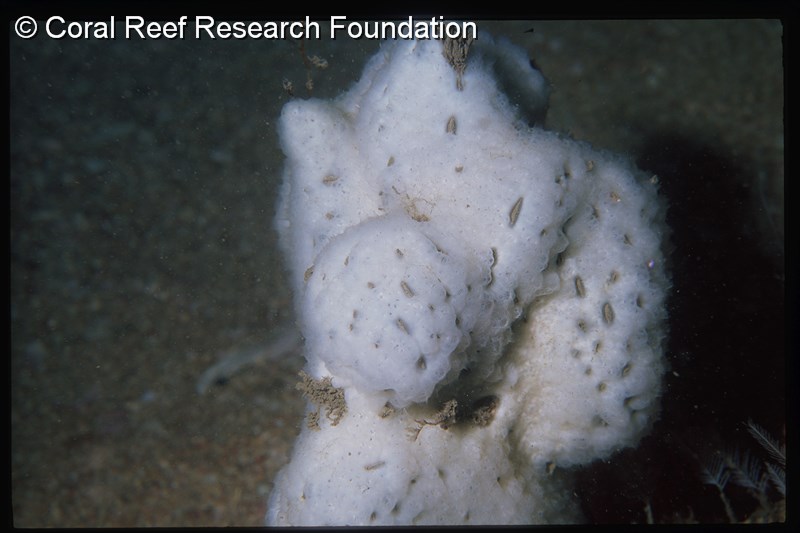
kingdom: Animalia
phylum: Chordata
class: Ascidiacea
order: Aplousobranchia
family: Holozoidae
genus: Distaplia
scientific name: Distaplia skoogi
